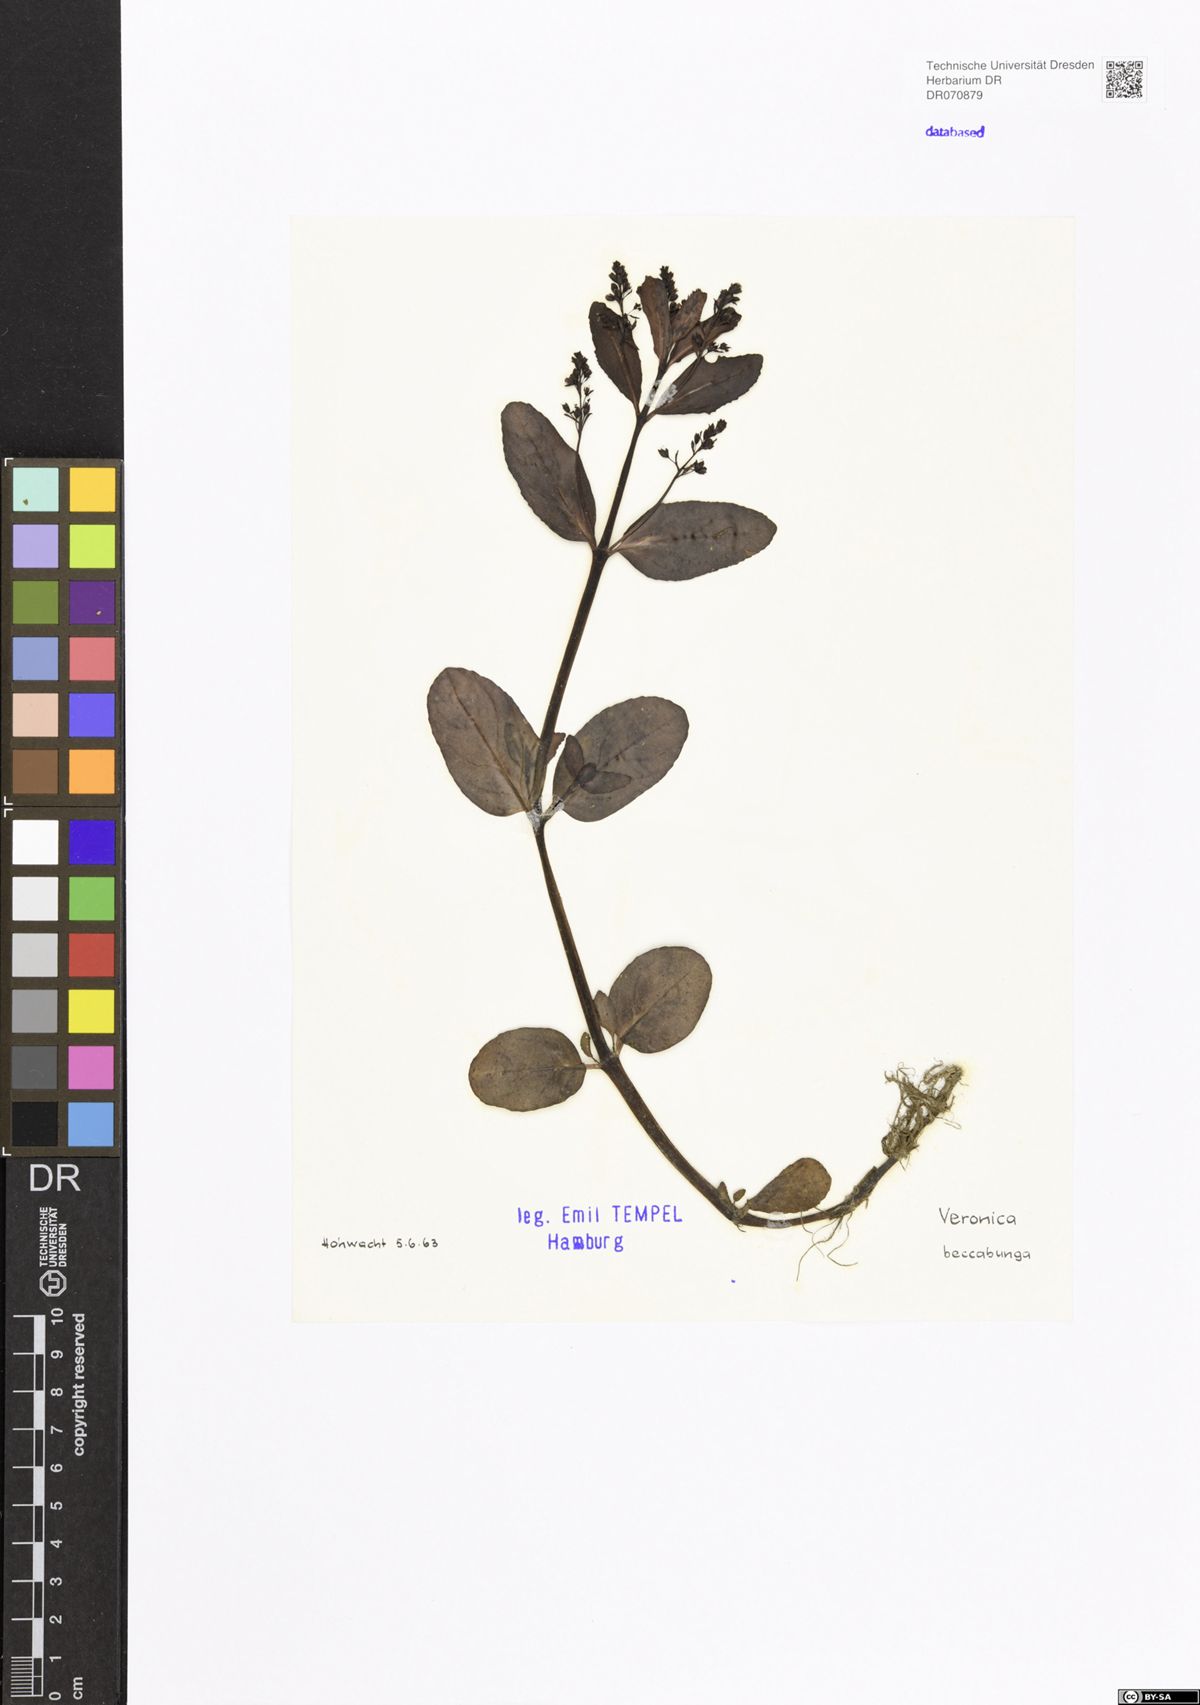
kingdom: Plantae
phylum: Tracheophyta
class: Magnoliopsida
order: Lamiales
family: Plantaginaceae
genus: Veronica
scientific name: Veronica beccabunga
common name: Brooklime
